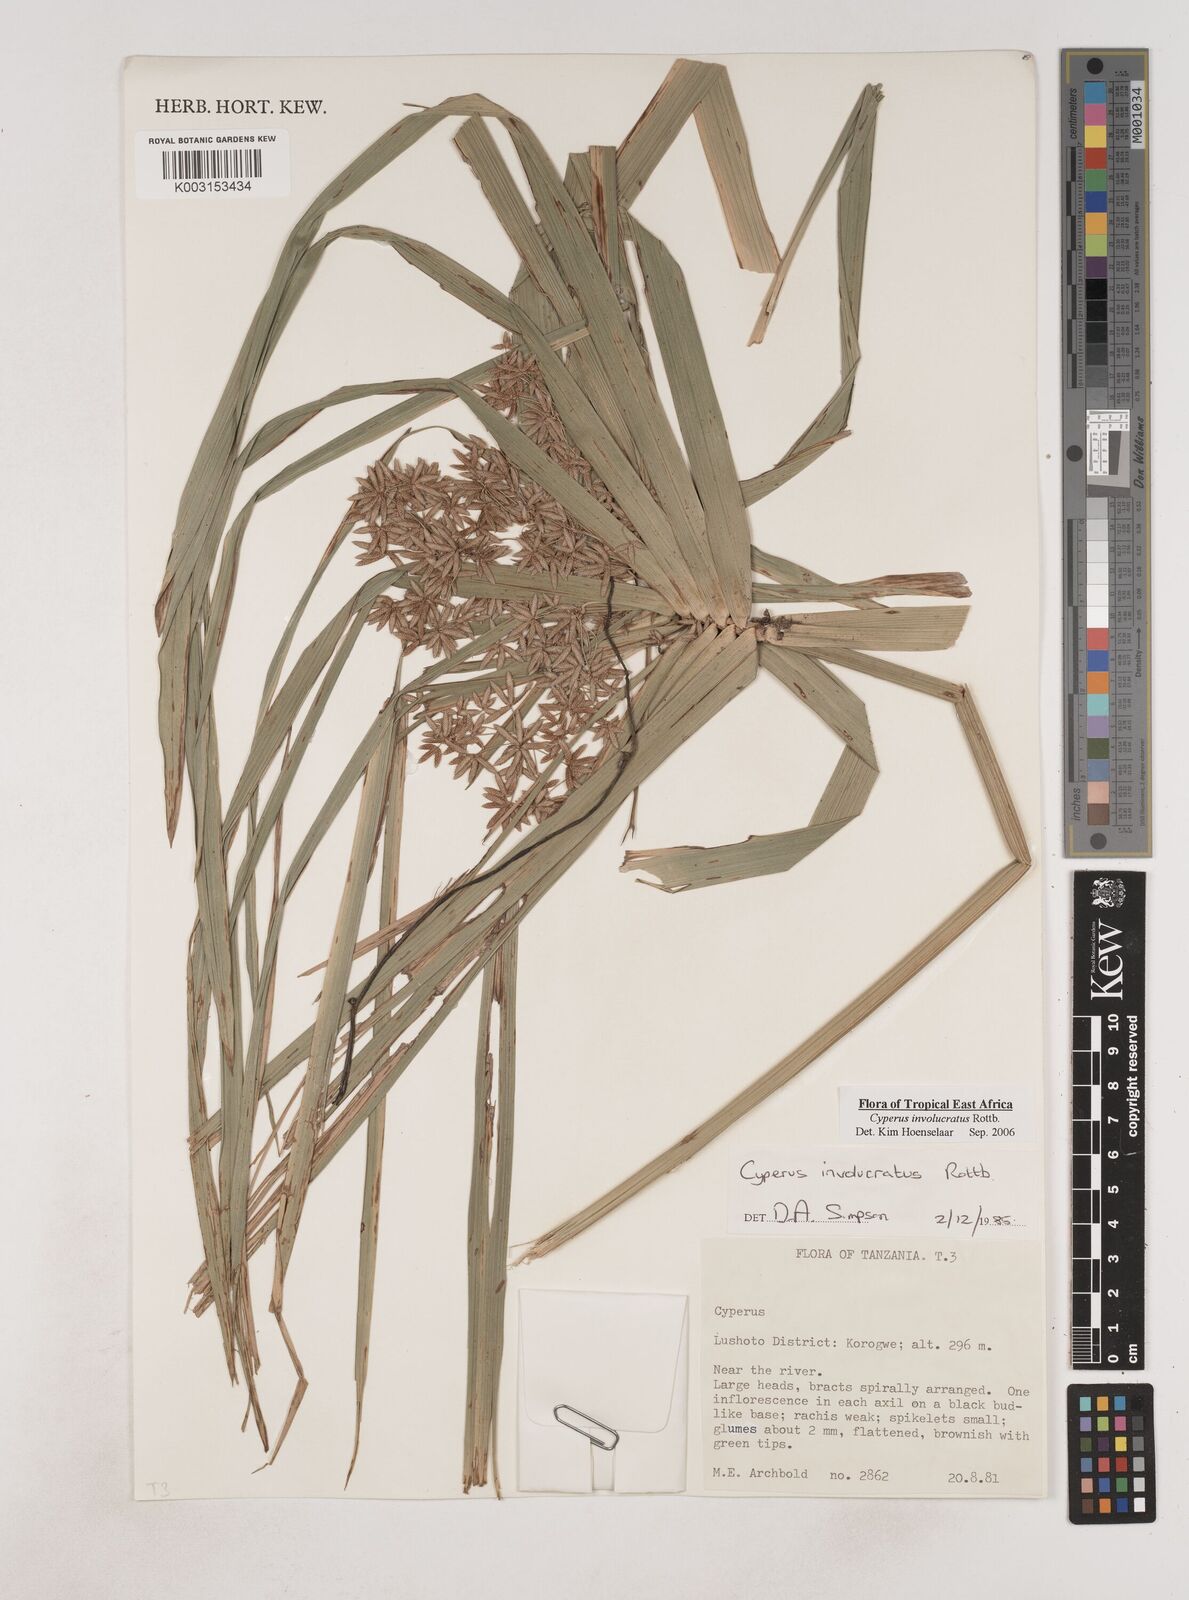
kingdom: Plantae
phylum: Tracheophyta
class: Liliopsida
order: Poales
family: Cyperaceae
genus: Cyperus
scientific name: Cyperus
